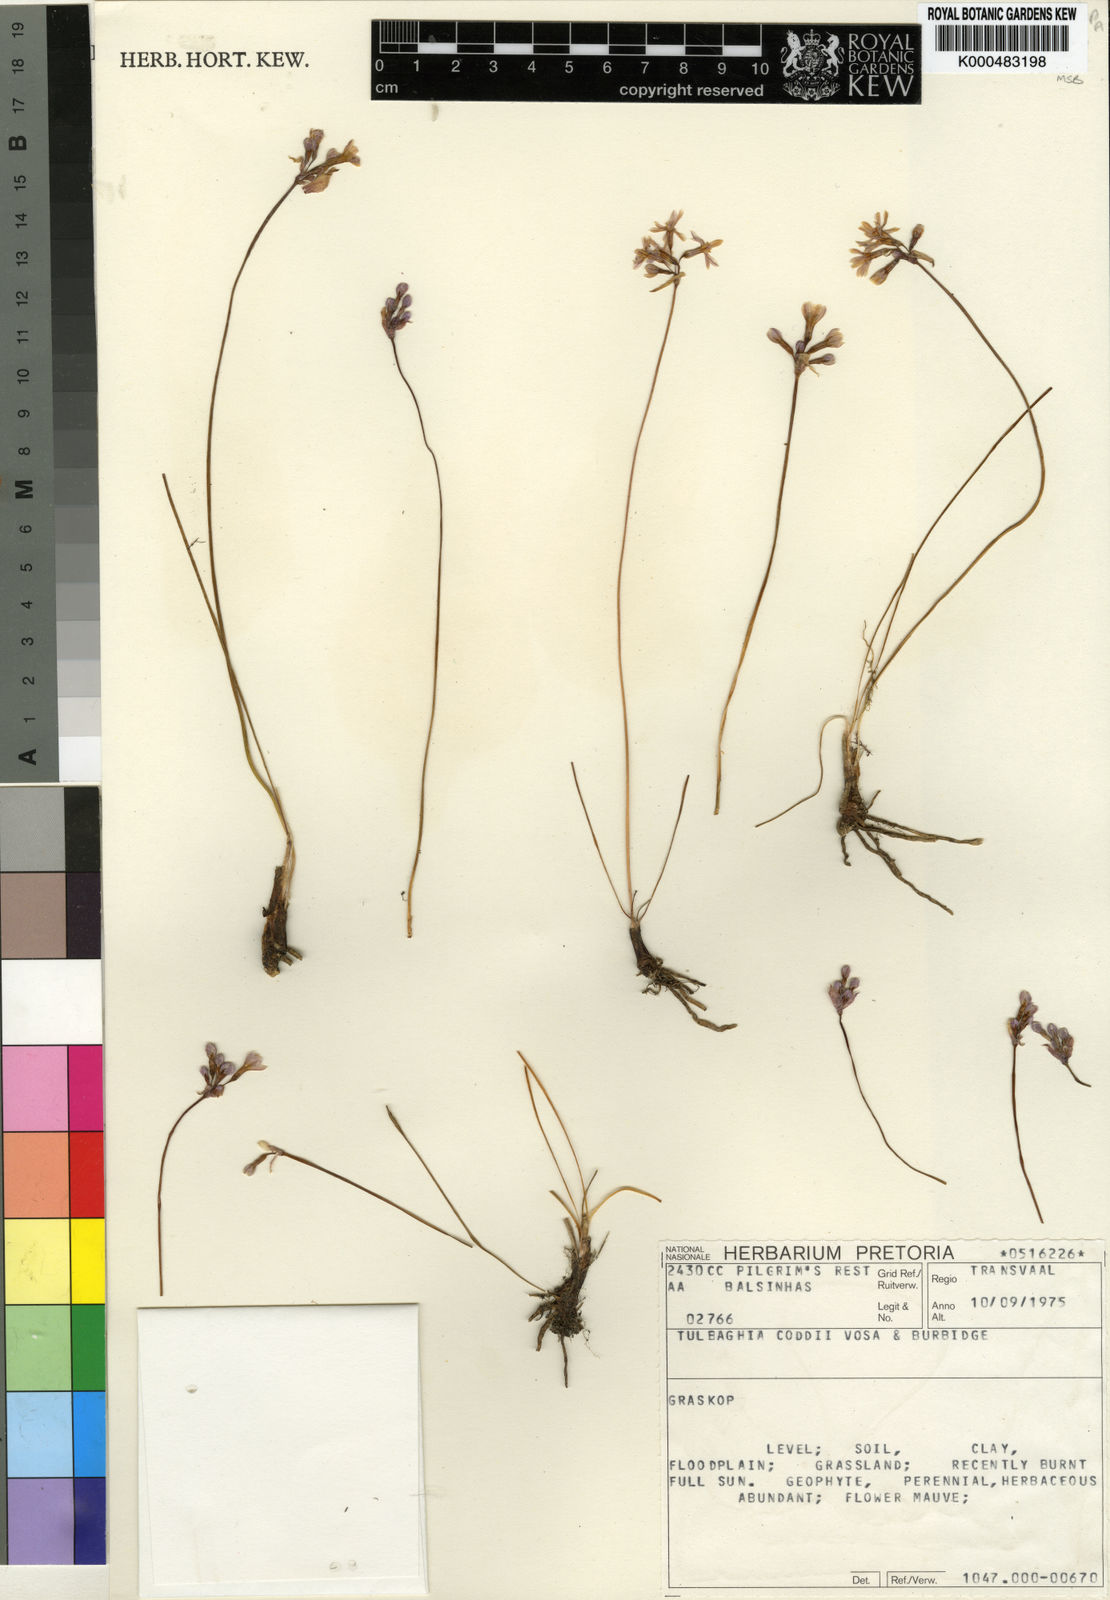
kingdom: Plantae
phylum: Tracheophyta
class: Liliopsida
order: Asparagales
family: Amaryllidaceae
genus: Tulbaghia
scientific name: Tulbaghia coddii
